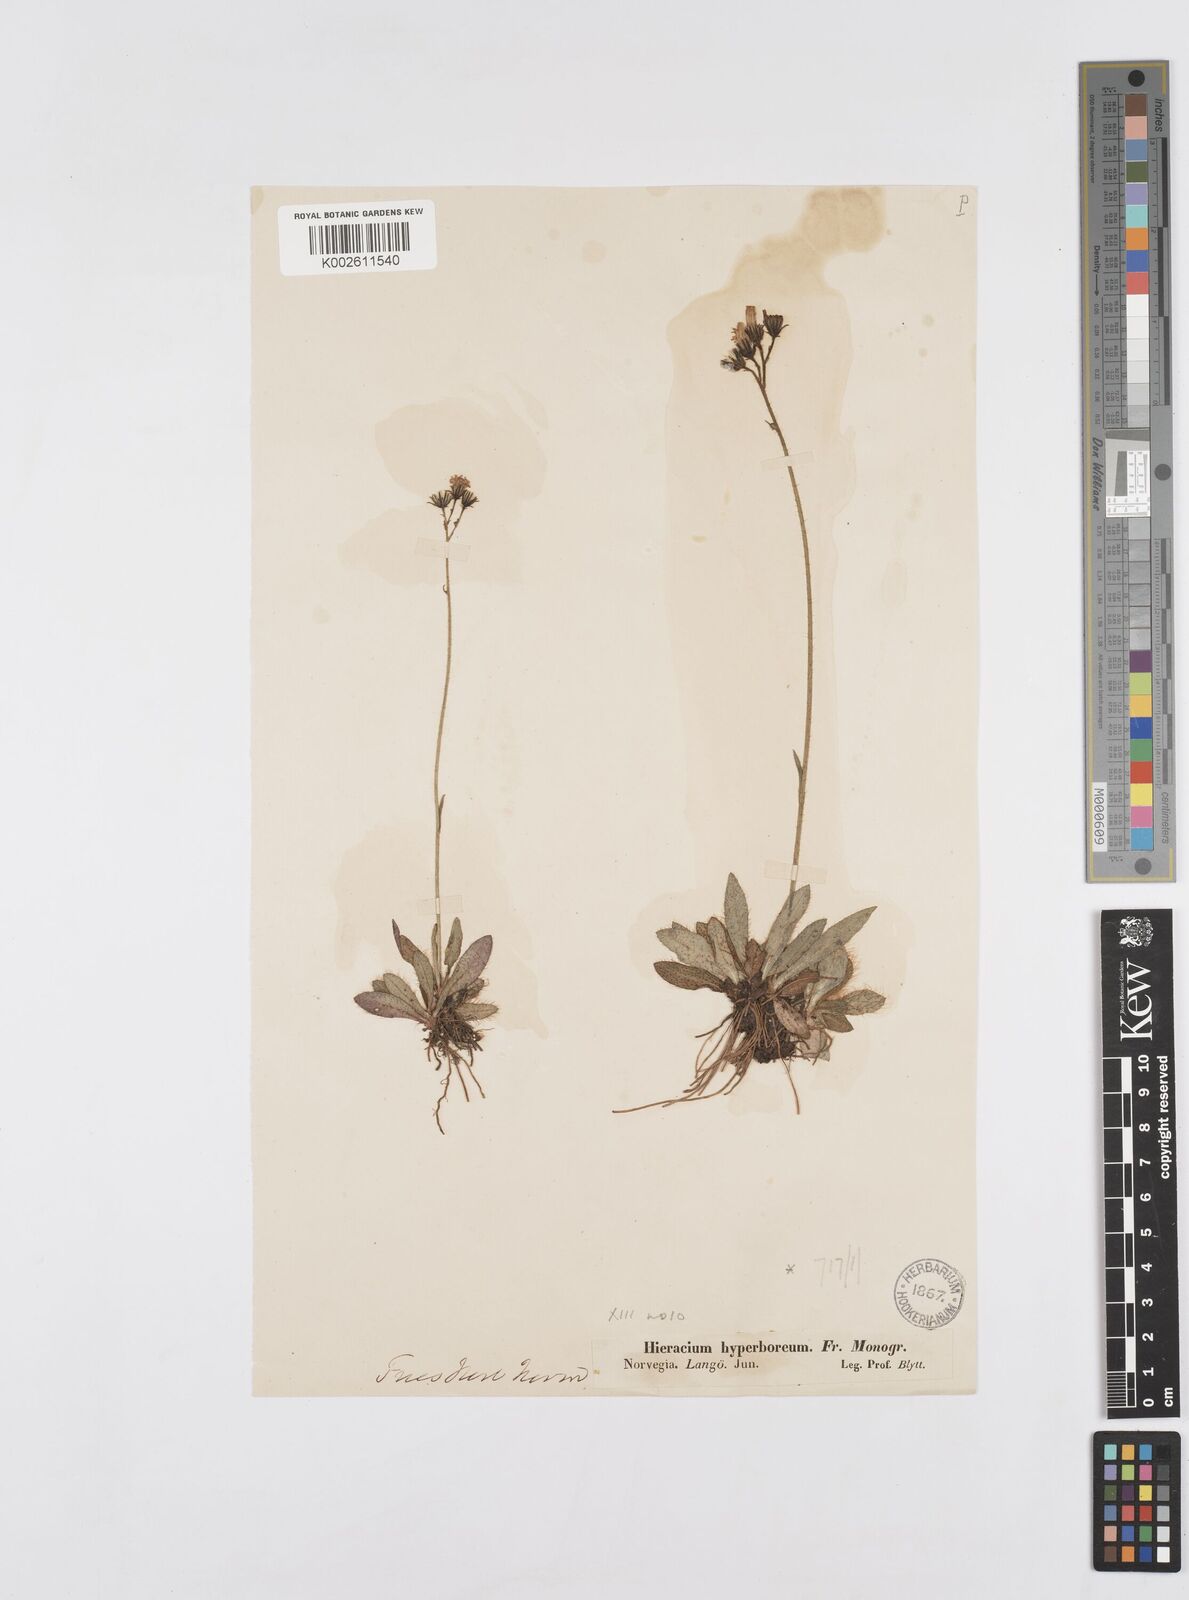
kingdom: Plantae
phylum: Tracheophyta
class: Magnoliopsida
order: Asterales
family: Asteraceae
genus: Pilosella
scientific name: Pilosella hyperborea
